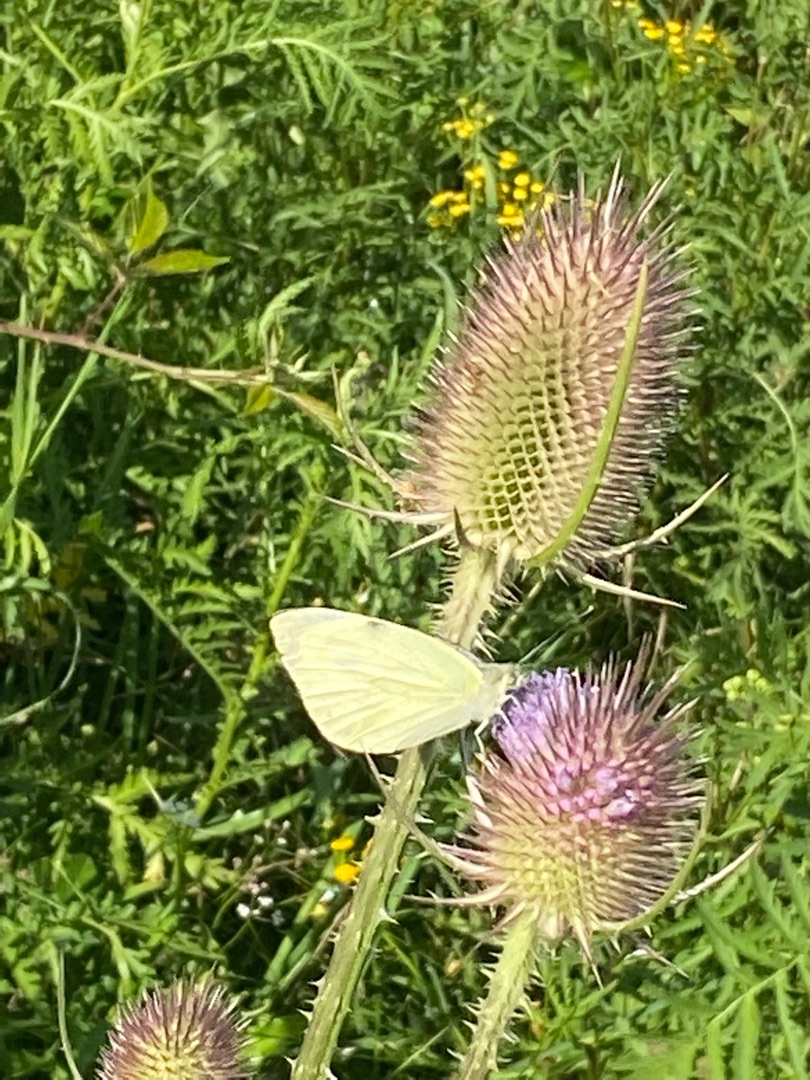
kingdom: Animalia
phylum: Arthropoda
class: Insecta
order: Lepidoptera
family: Pieridae
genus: Pieris
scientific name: Pieris brassicae
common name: Stor kålsommerfugl
